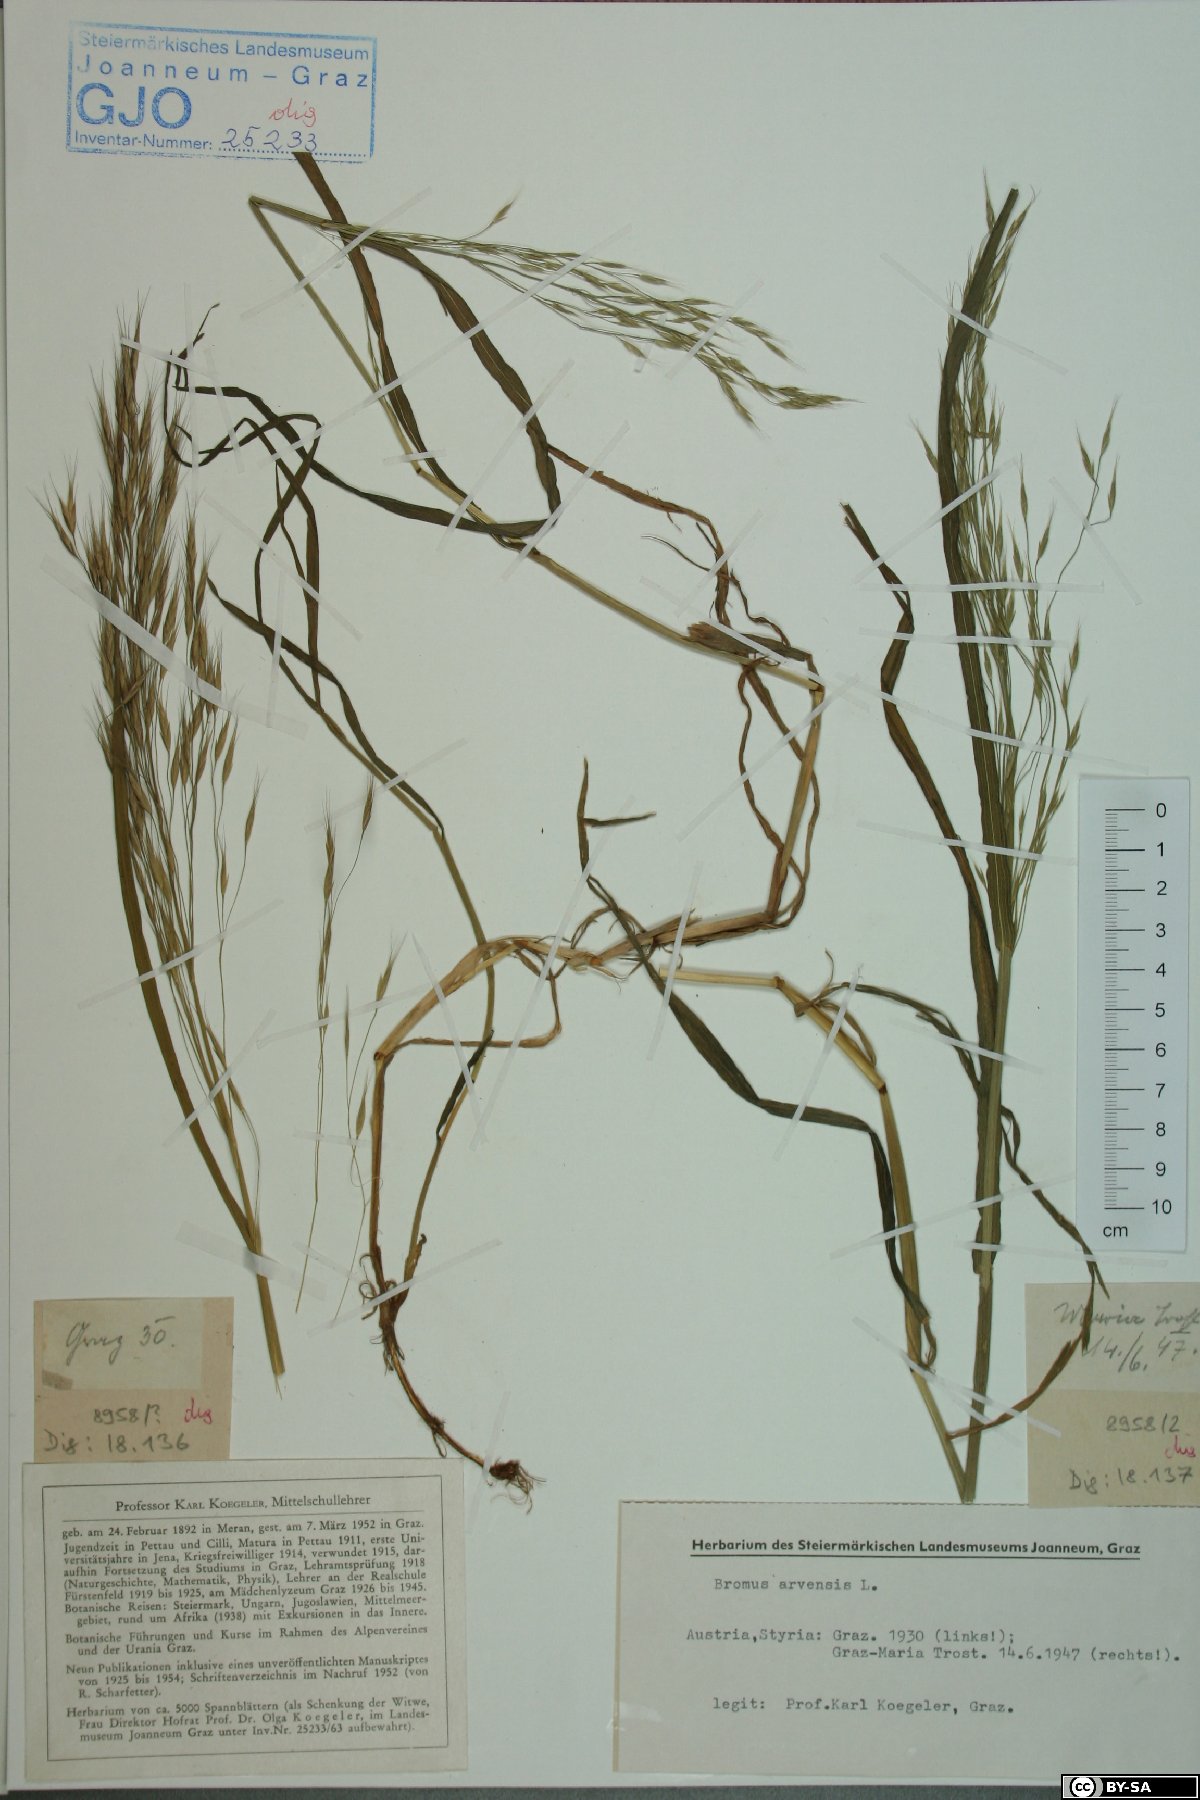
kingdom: Plantae
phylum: Tracheophyta
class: Liliopsida
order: Poales
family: Poaceae
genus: Bromus
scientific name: Bromus arvensis
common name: Field brome
